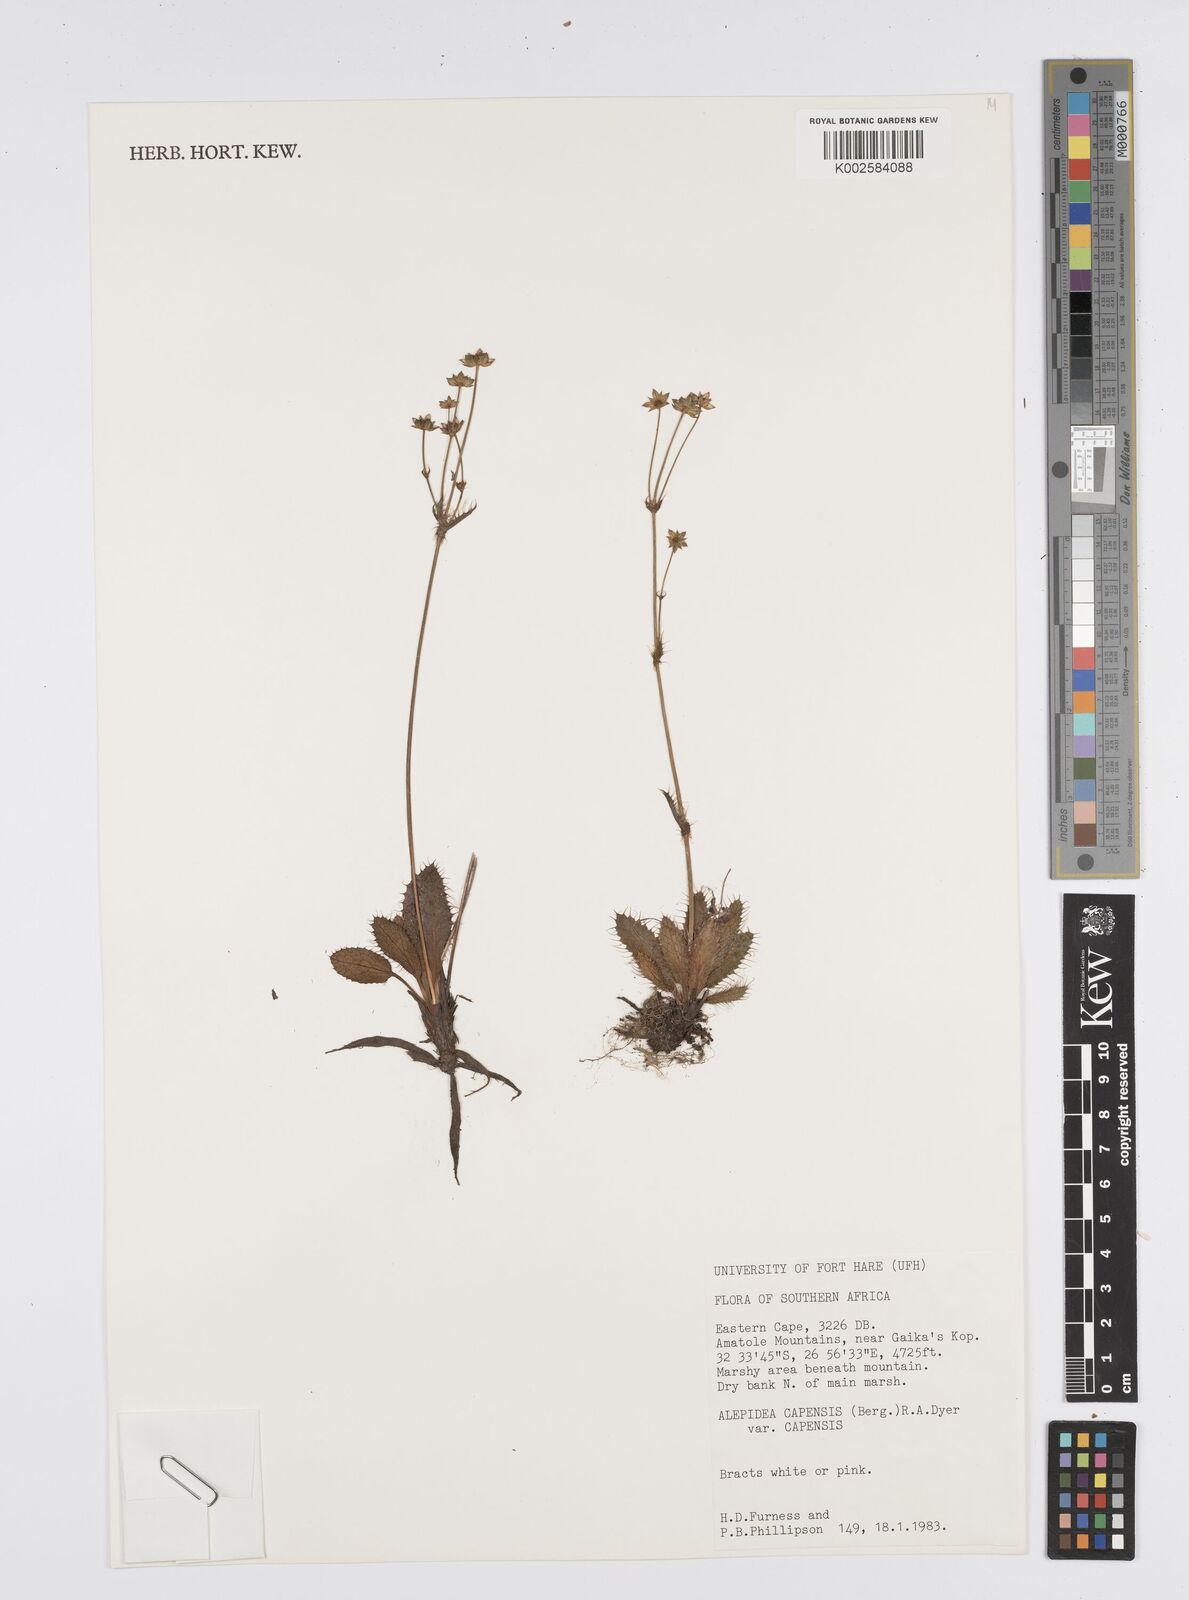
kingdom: Plantae
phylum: Tracheophyta
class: Magnoliopsida
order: Apiales
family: Apiaceae
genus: Alepidea
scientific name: Alepidea capensis
